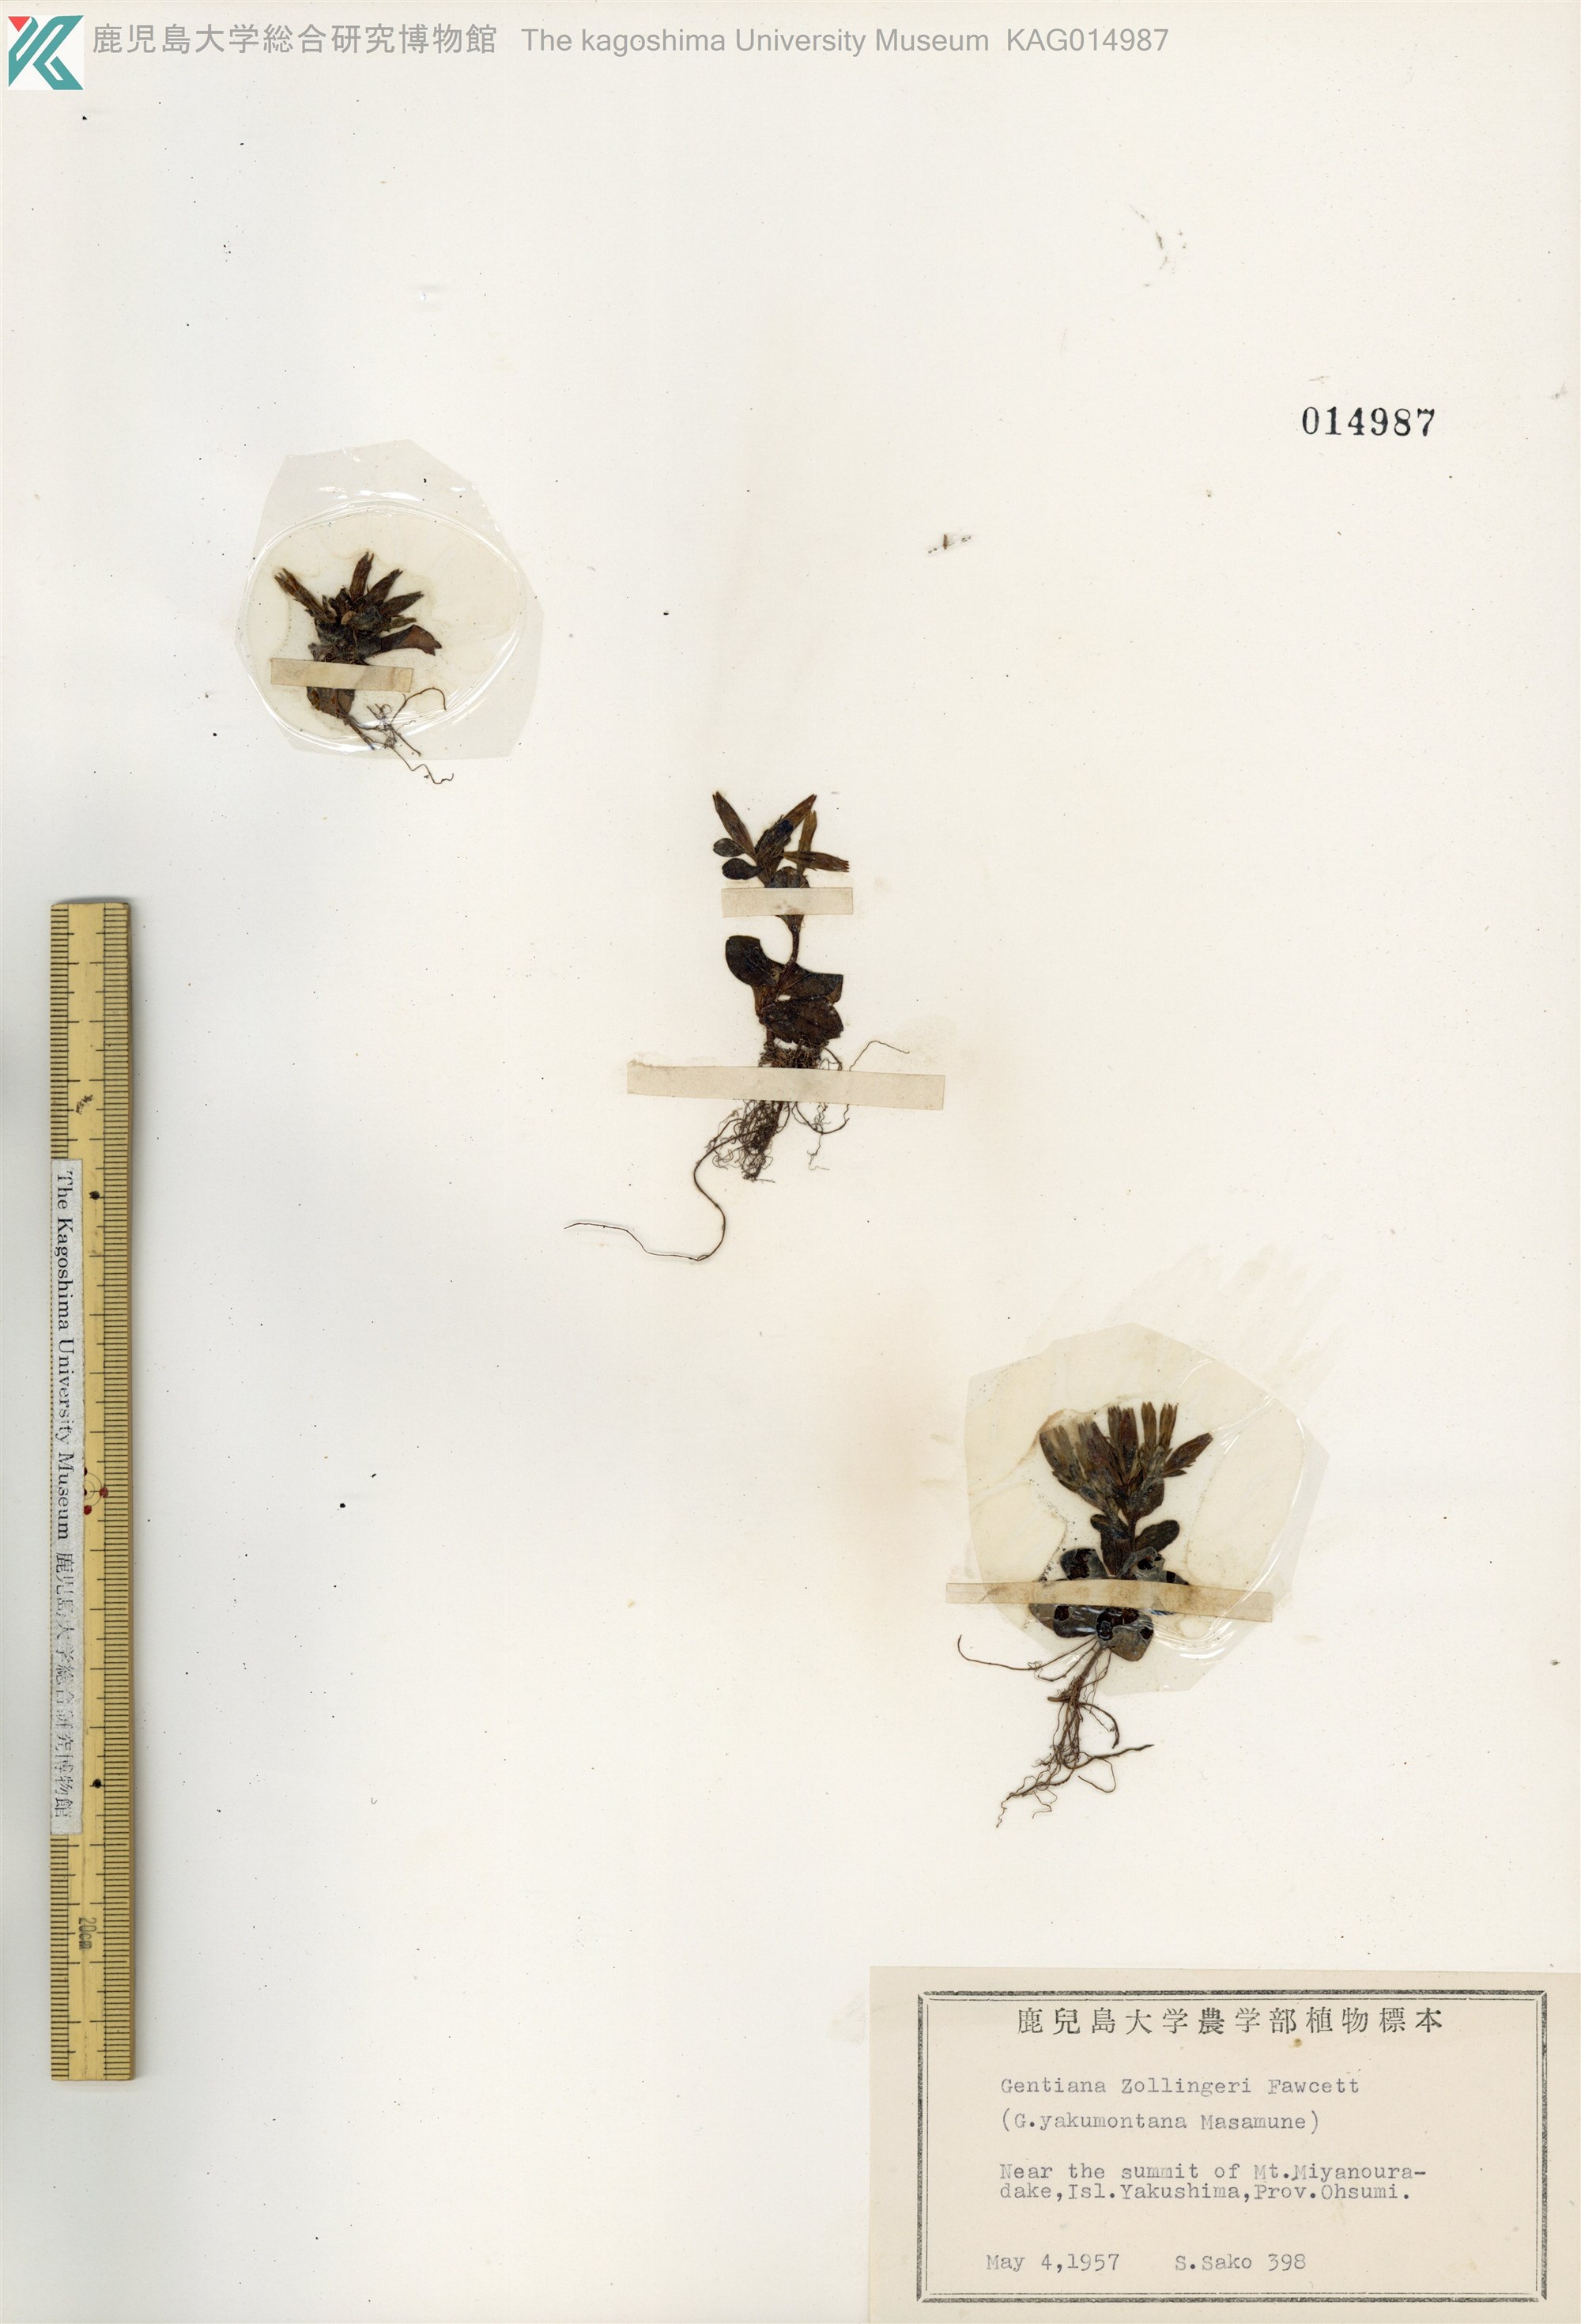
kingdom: Plantae
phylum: Tracheophyta
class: Magnoliopsida
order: Gentianales
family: Gentianaceae
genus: Gentiana
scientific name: Gentiana zollingeri
